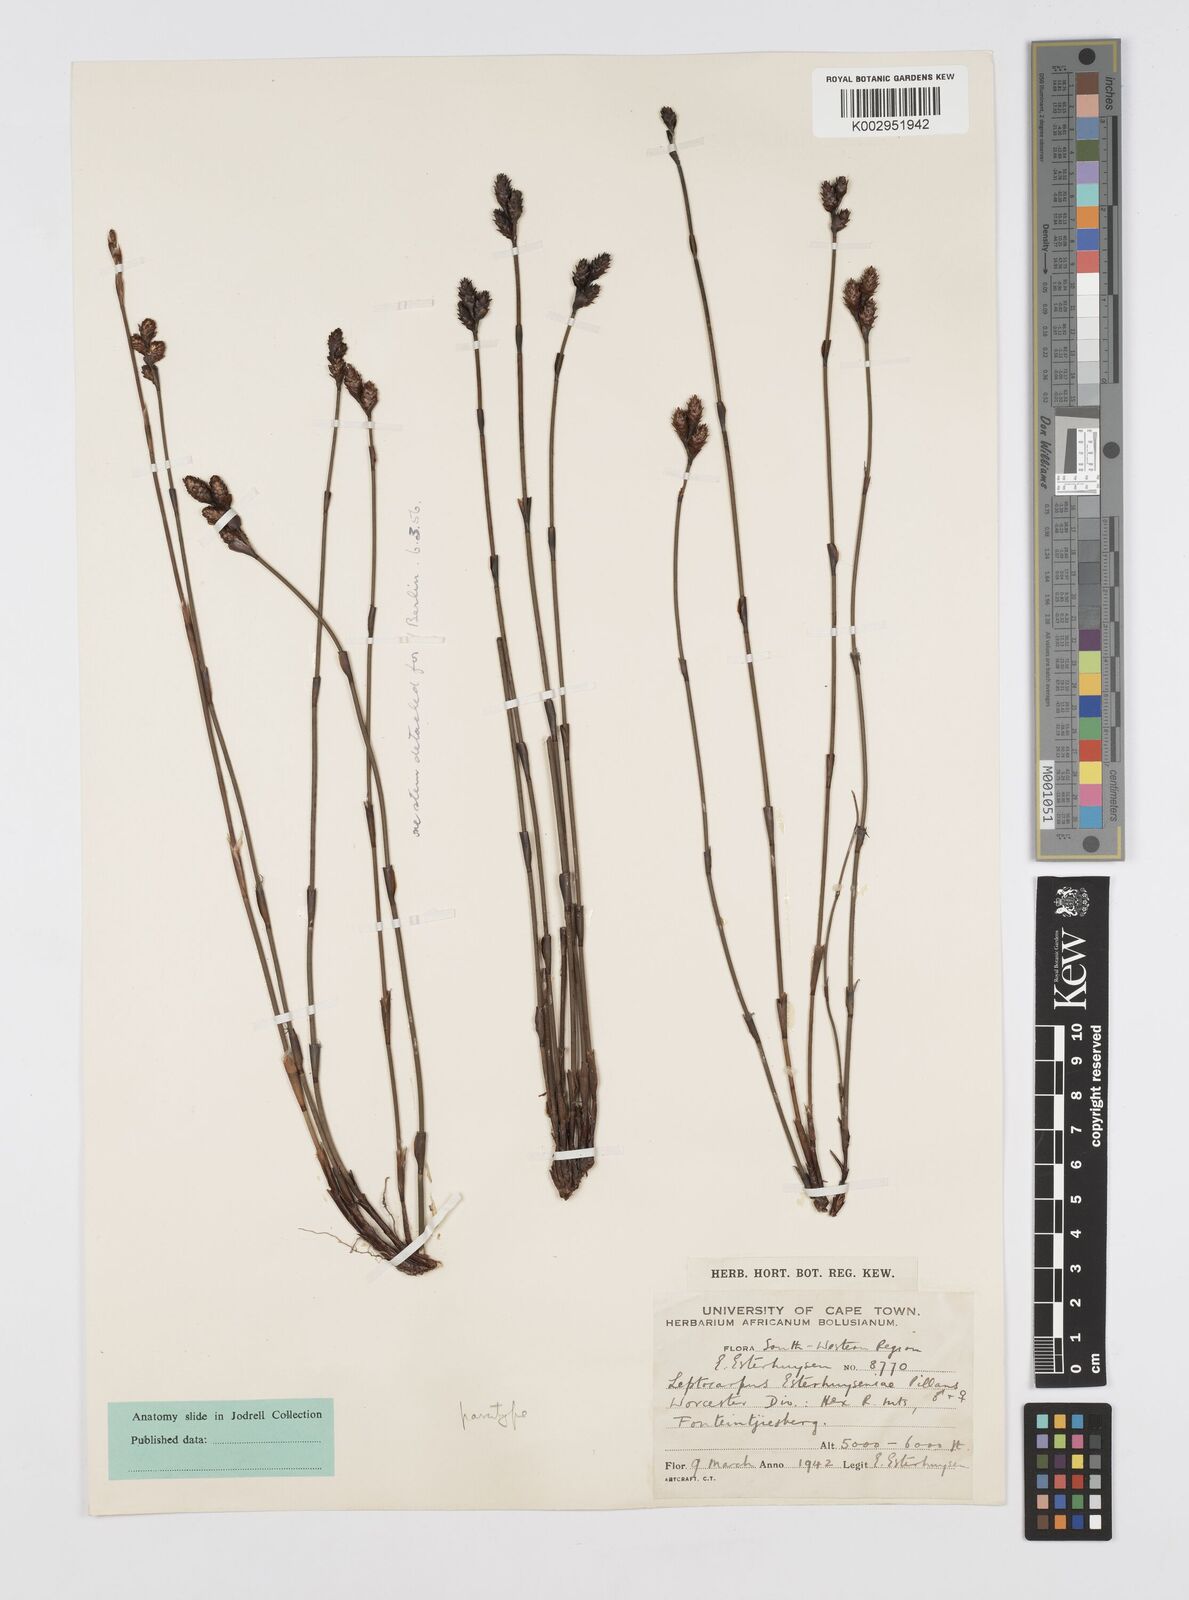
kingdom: Plantae
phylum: Tracheophyta
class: Liliopsida
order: Poales
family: Restionaceae
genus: Restio
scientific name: Restio esterhuyseniae
